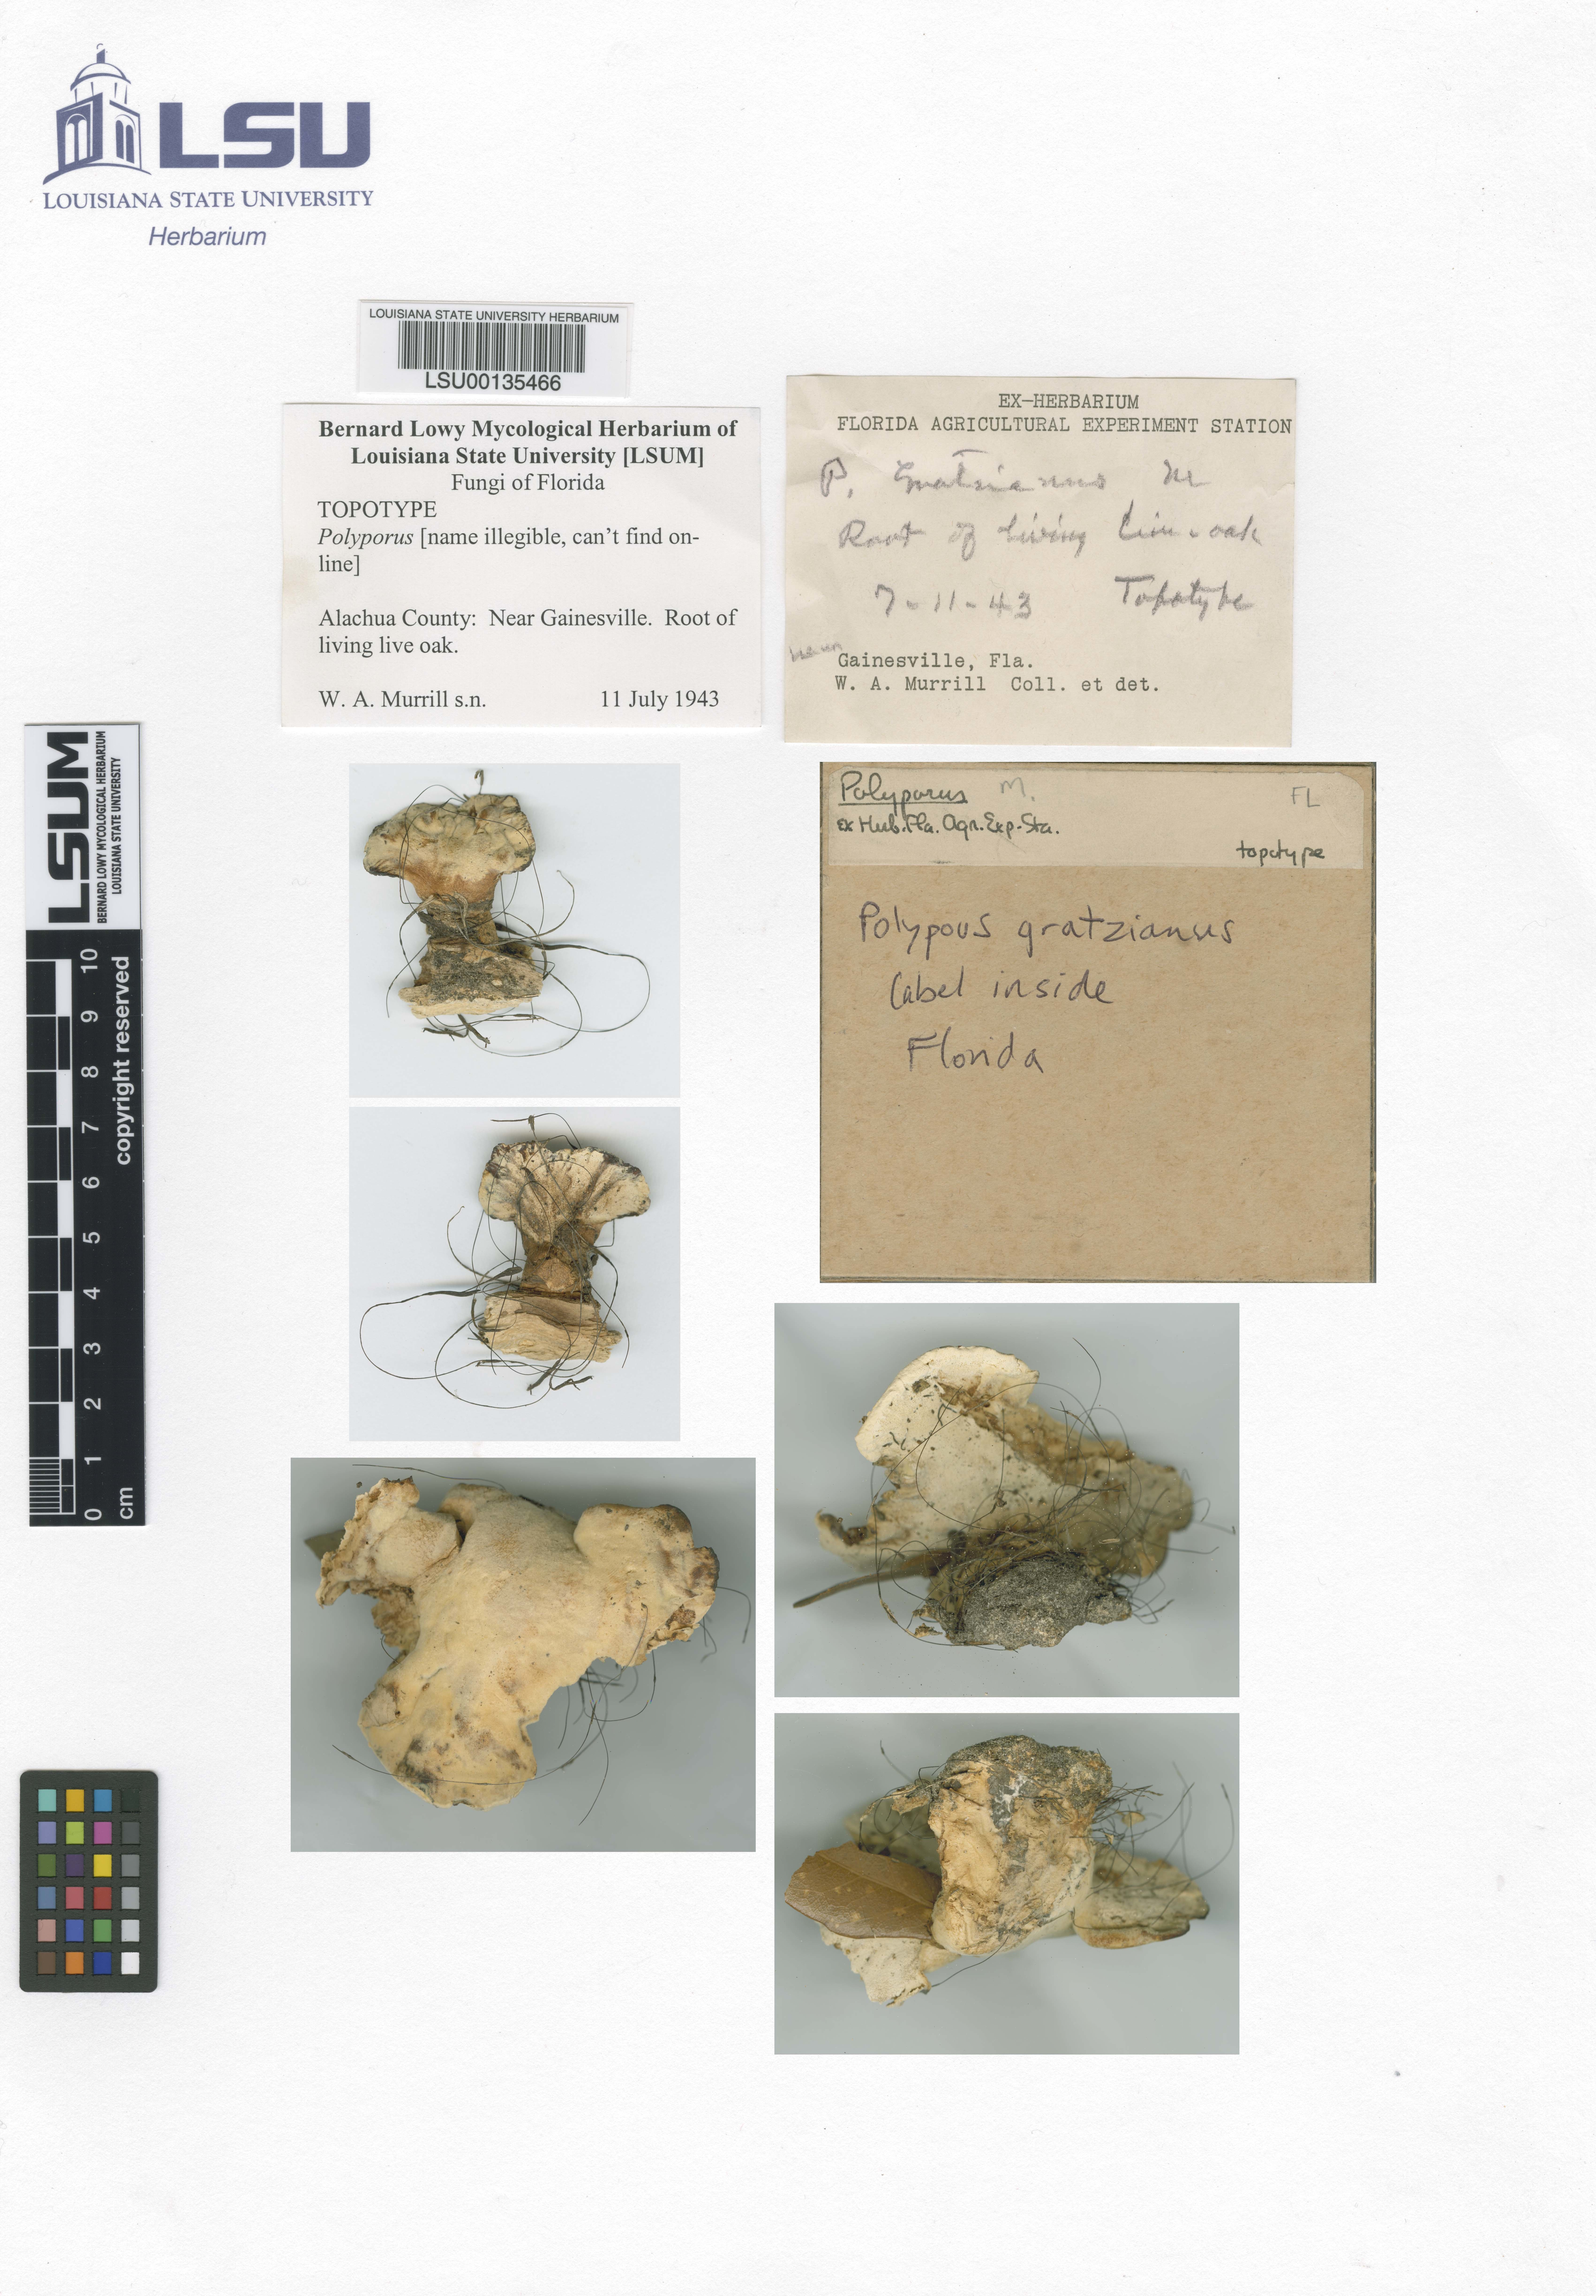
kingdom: Fungi
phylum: Basidiomycota
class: Agaricomycetes
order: Polyporales
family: Polyporaceae
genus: Polyporus
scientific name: Polyporus gratzianus
